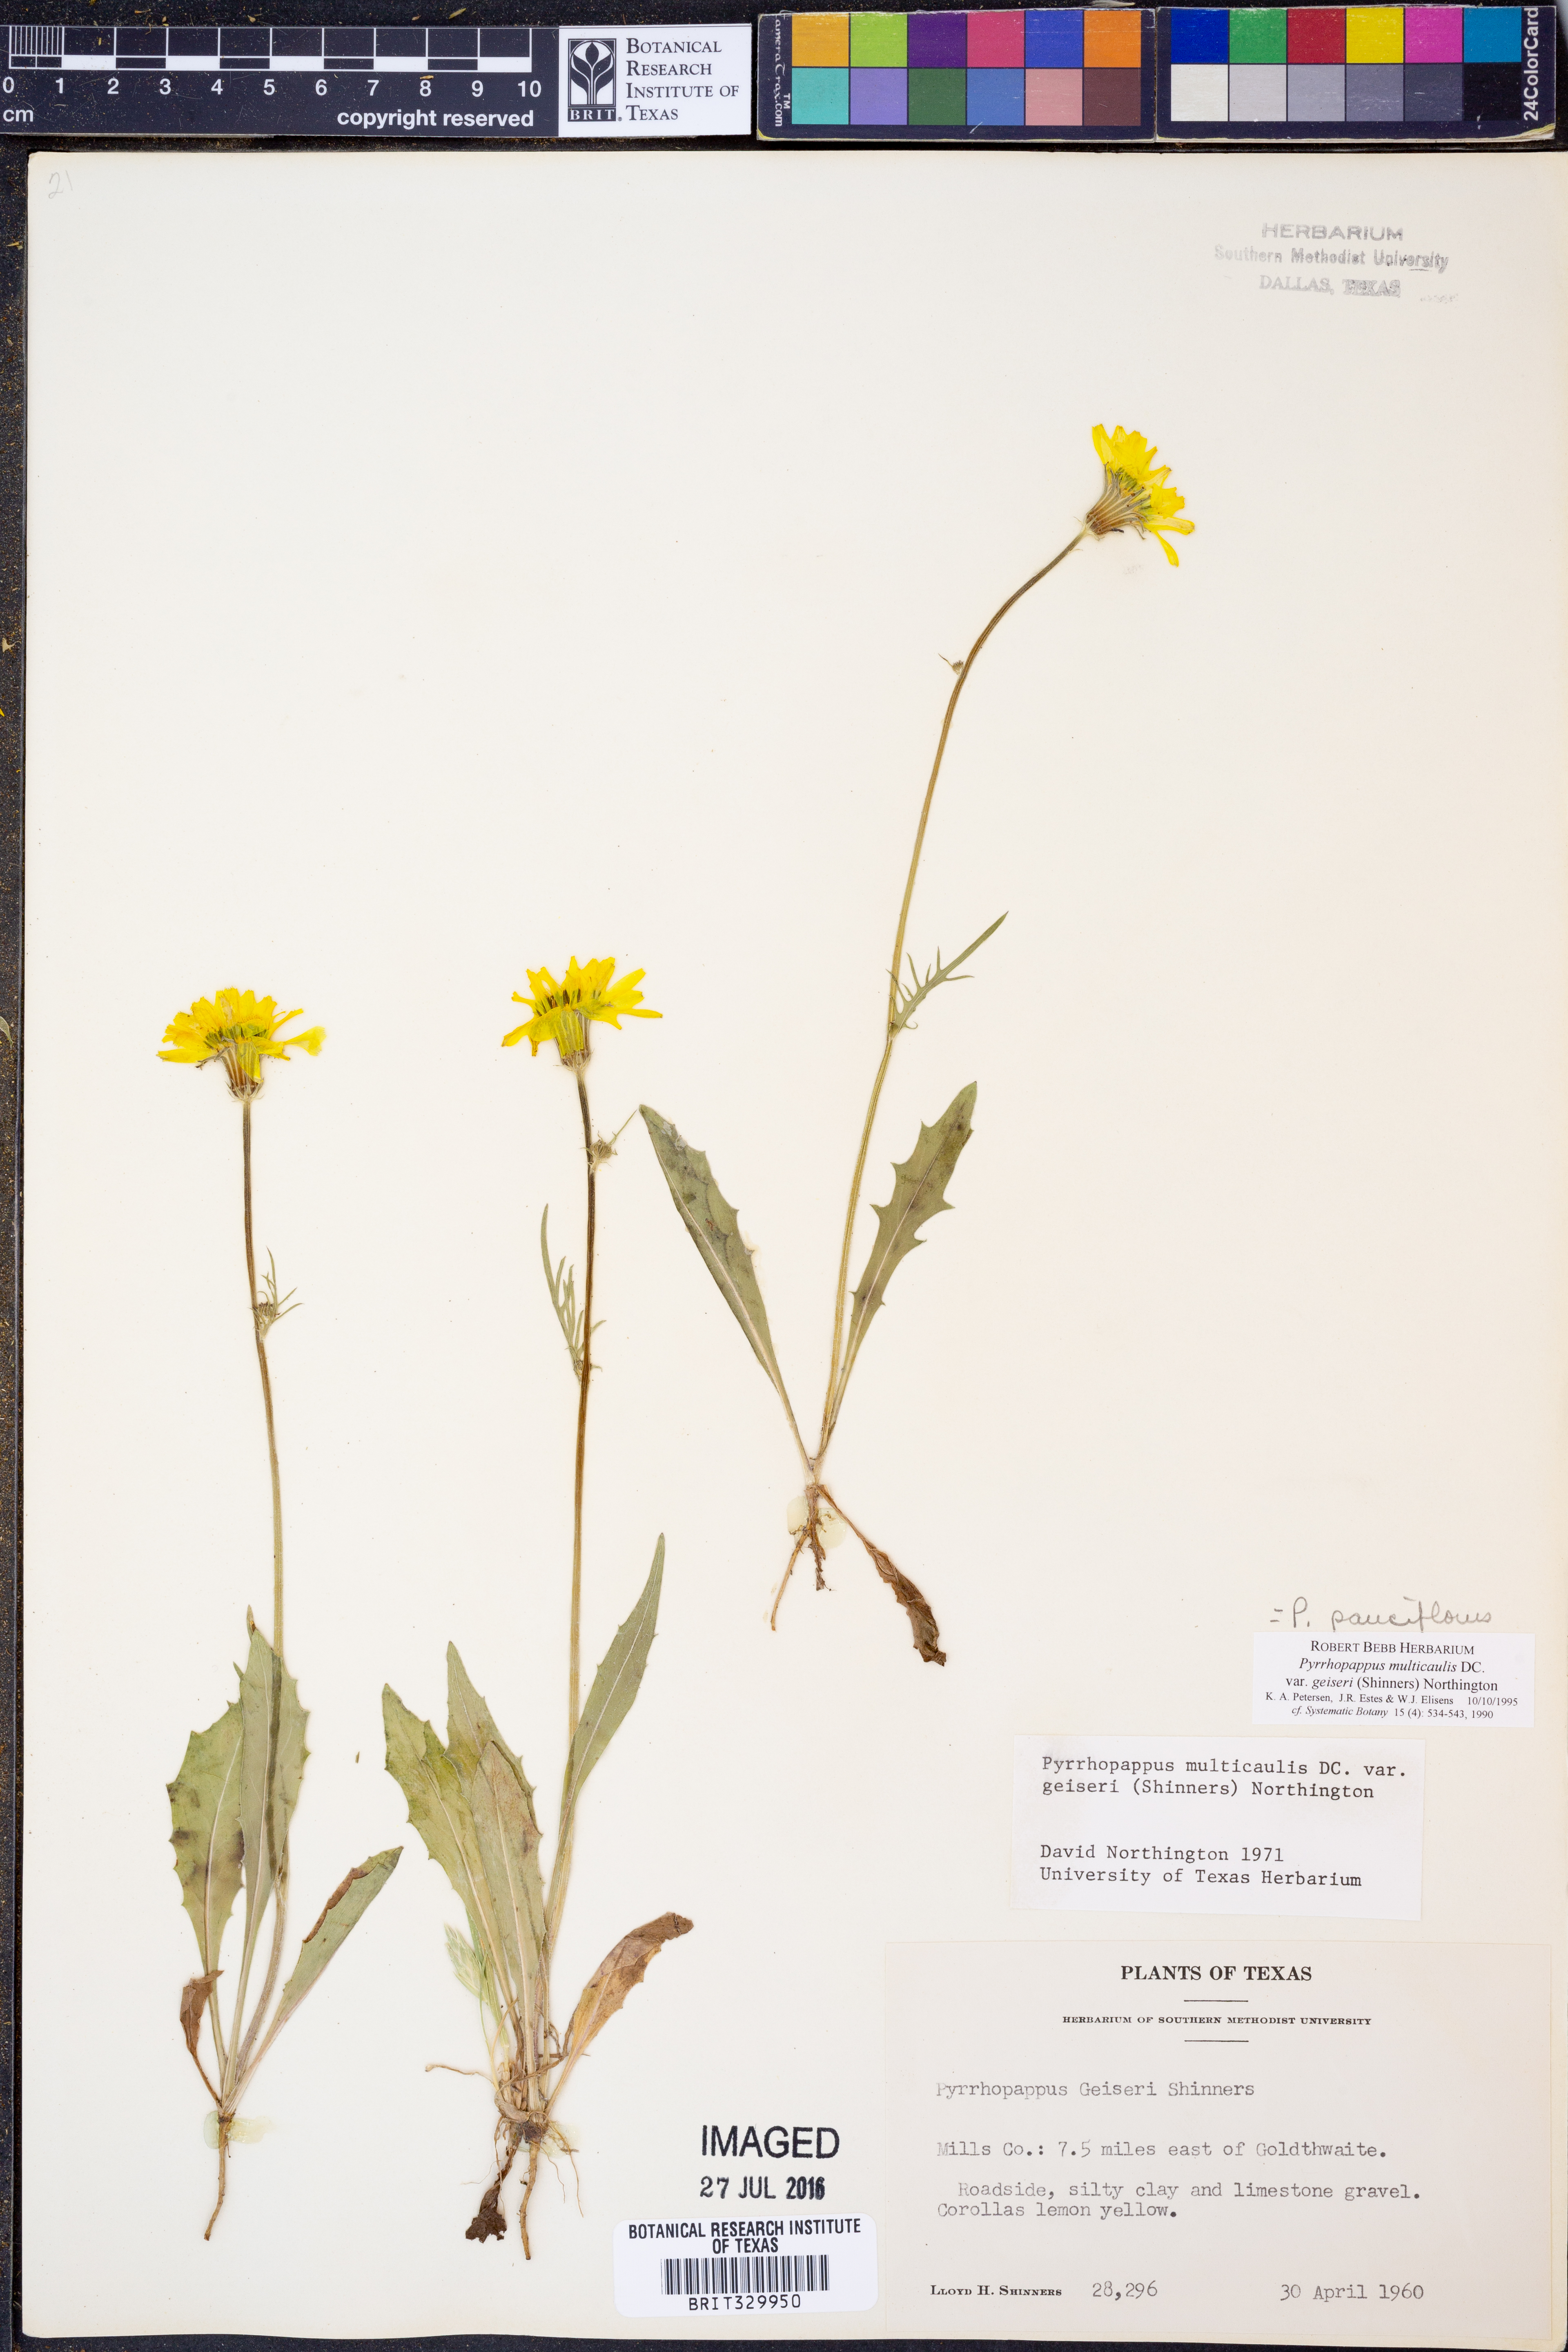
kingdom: Plantae
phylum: Tracheophyta
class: Magnoliopsida
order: Asterales
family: Asteraceae
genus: Pyrrhopappus
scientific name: Pyrrhopappus pauciflorus
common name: Texas false dandelion
